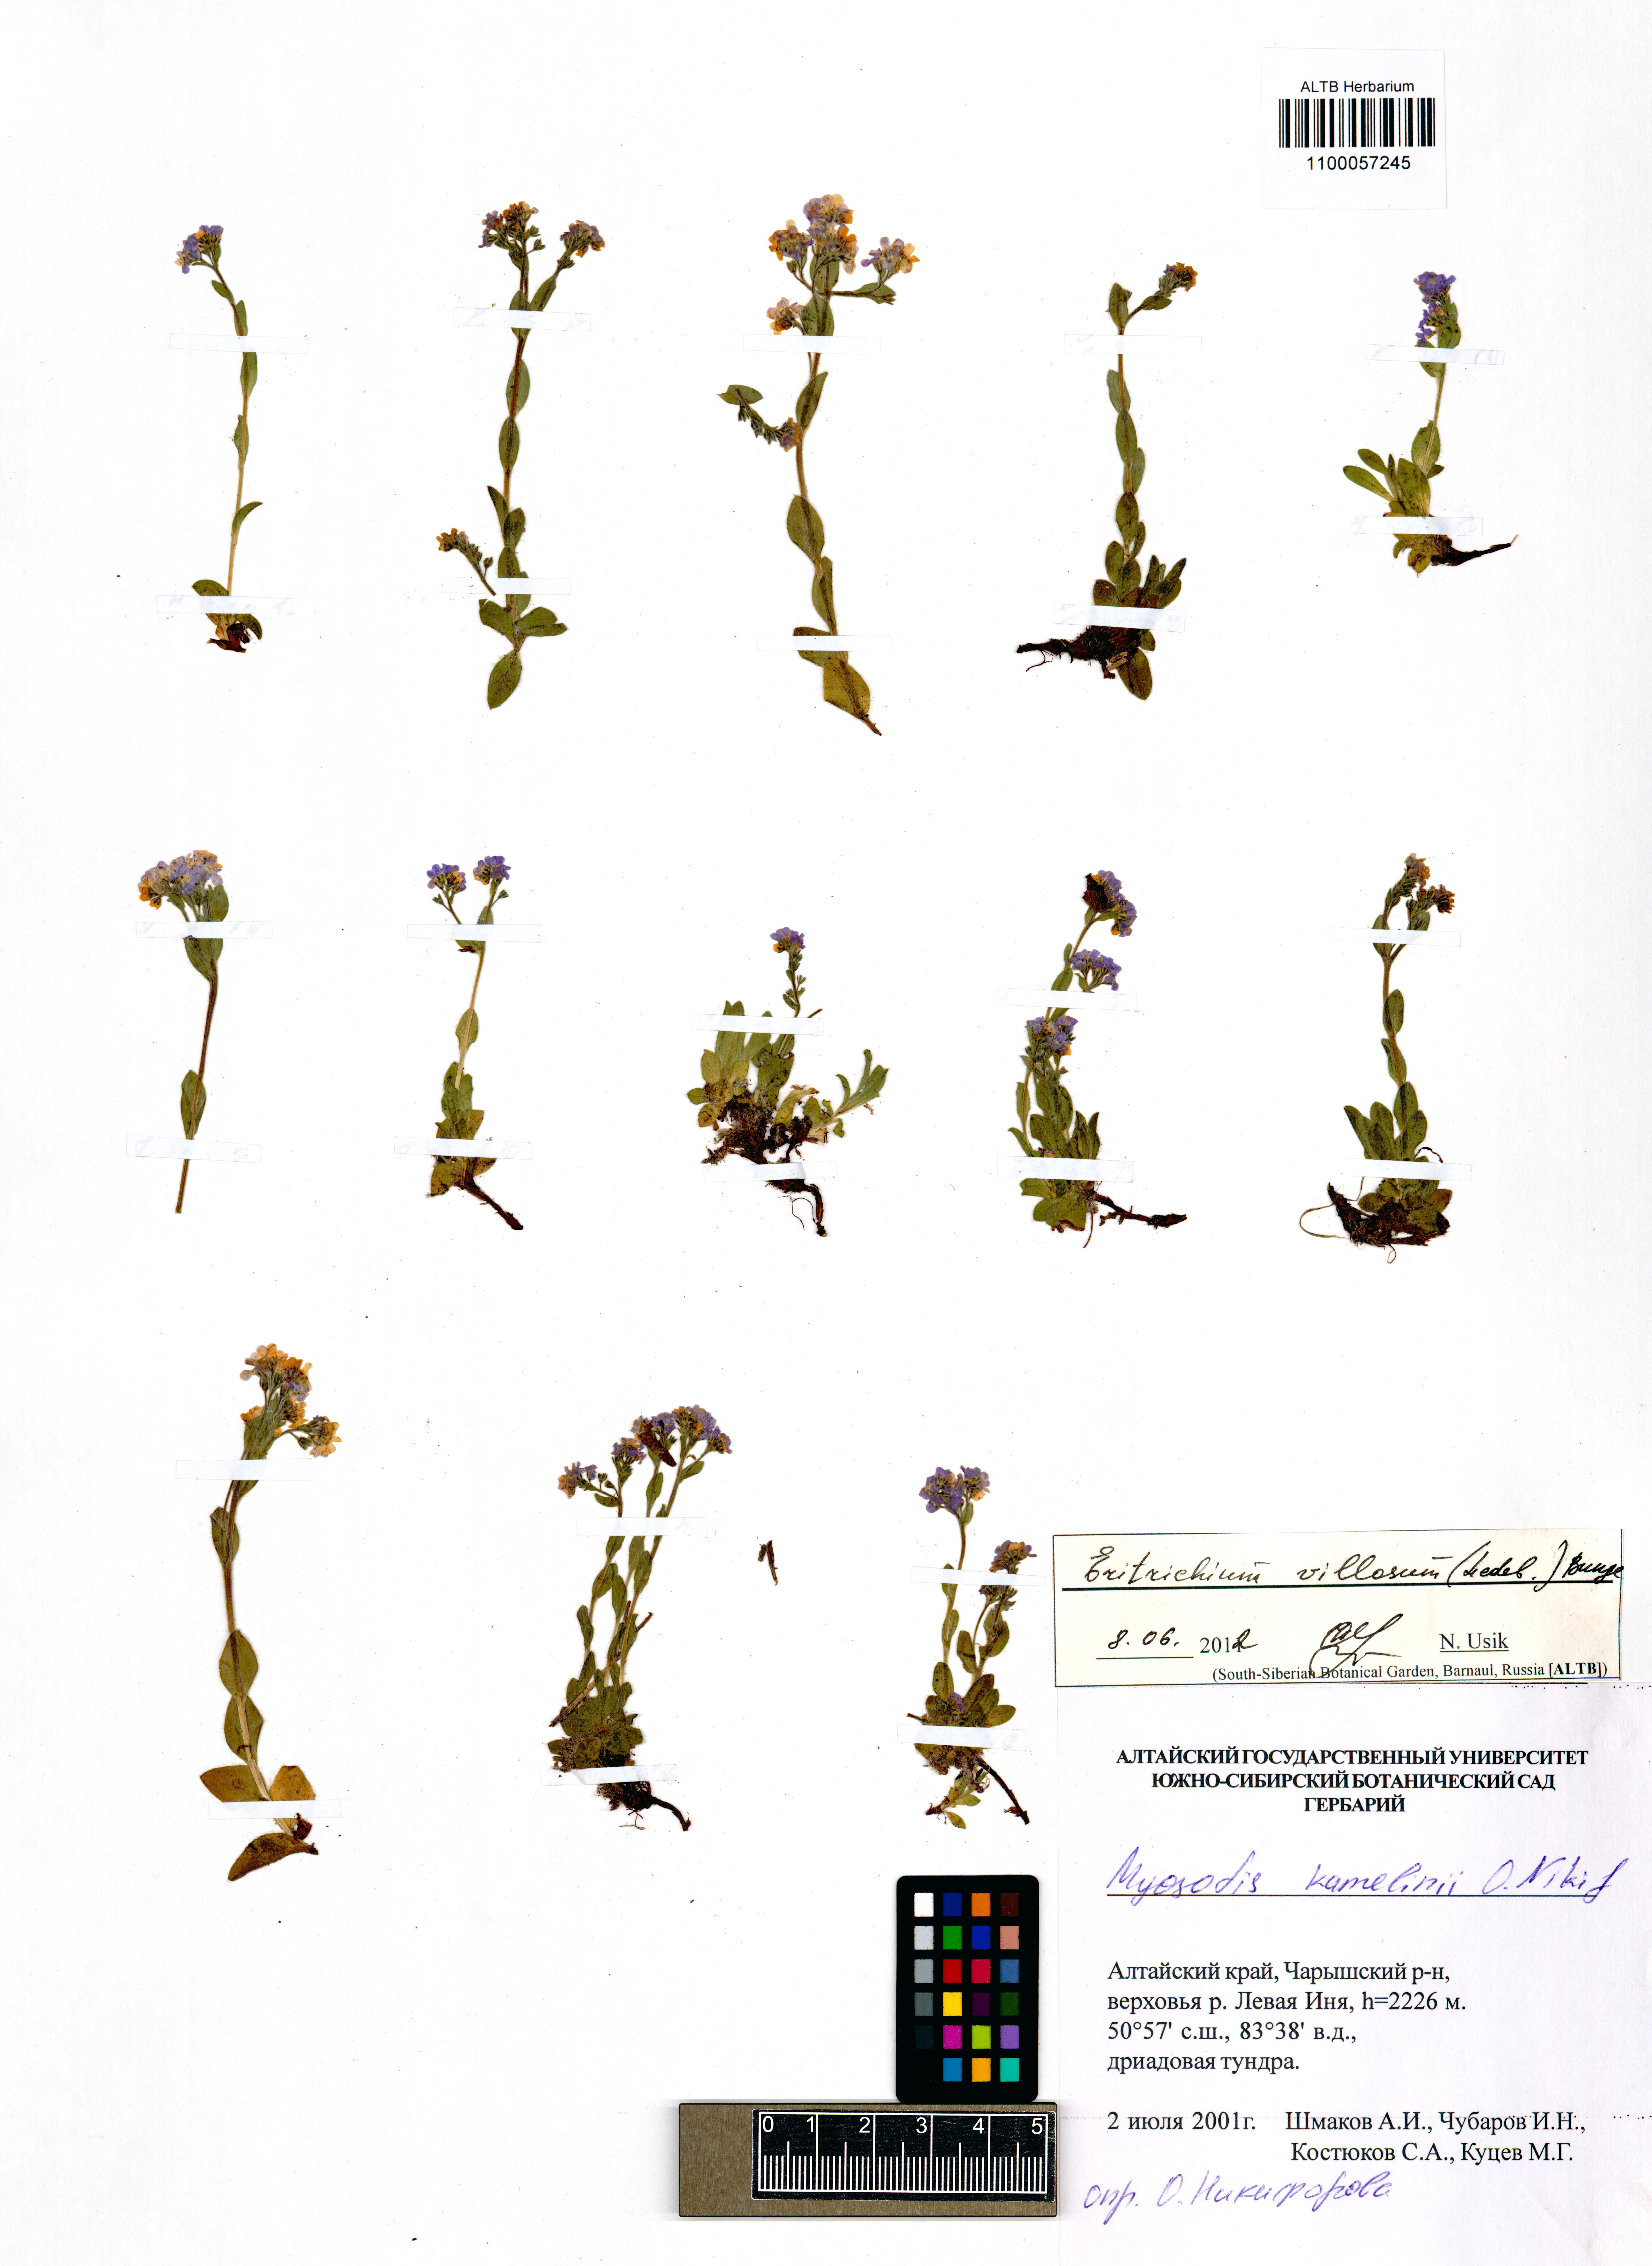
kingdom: Plantae
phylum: Tracheophyta
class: Magnoliopsida
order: Boraginales
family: Boraginaceae
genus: Eritrichium
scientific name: Eritrichium villosum
